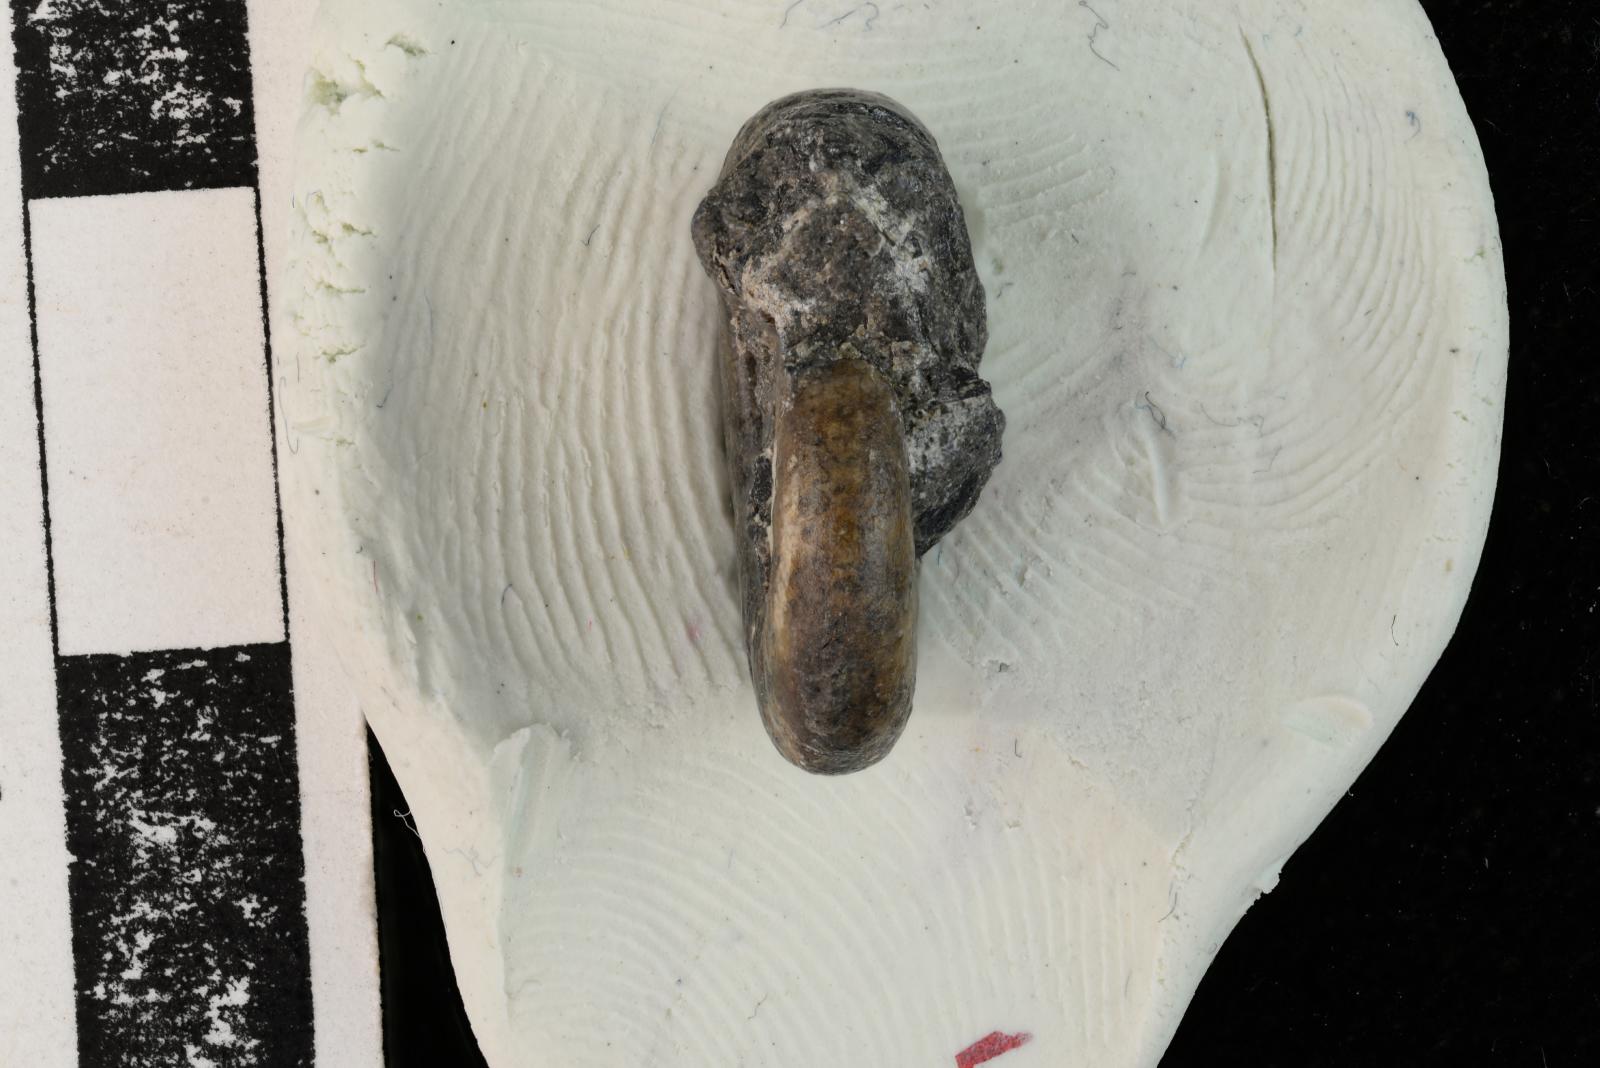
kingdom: Animalia
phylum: Mollusca
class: Cephalopoda
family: Scaphitidae
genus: Yezoites
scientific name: Yezoites puerculus
